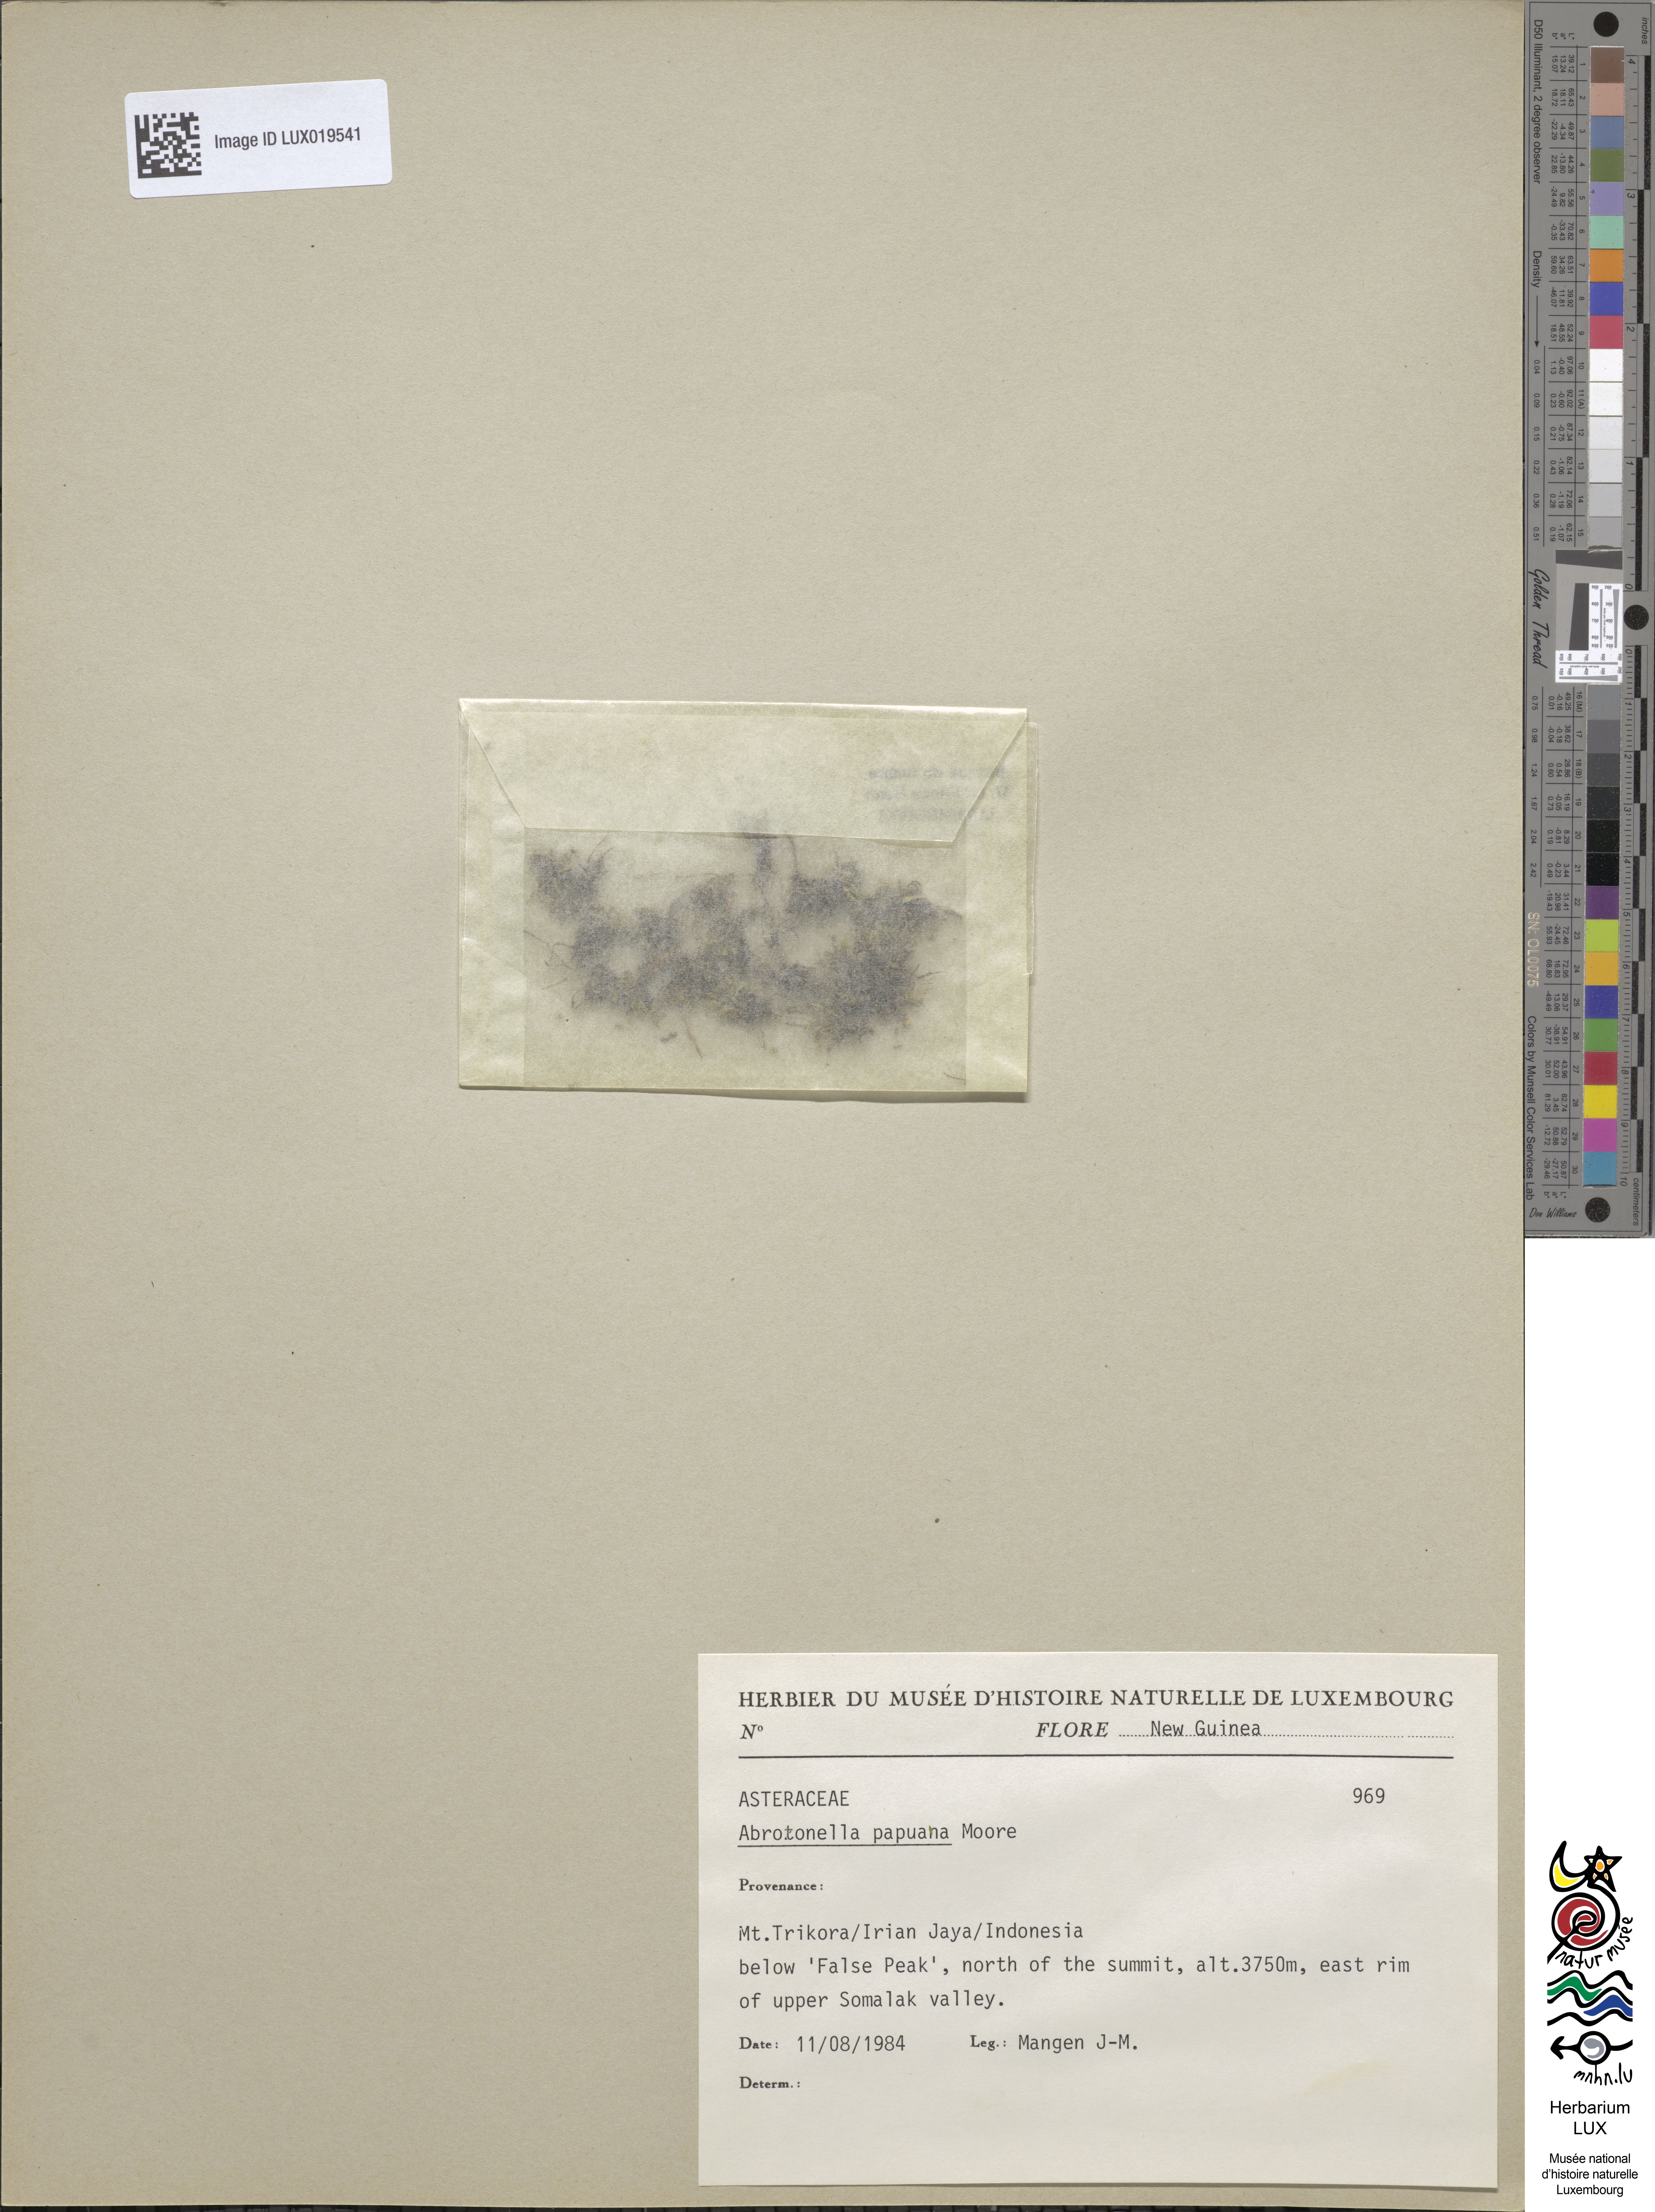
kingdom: Plantae
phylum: Tracheophyta
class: Magnoliopsida
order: Asterales
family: Asteraceae
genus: Abrotanella
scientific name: Abrotanella papuana
